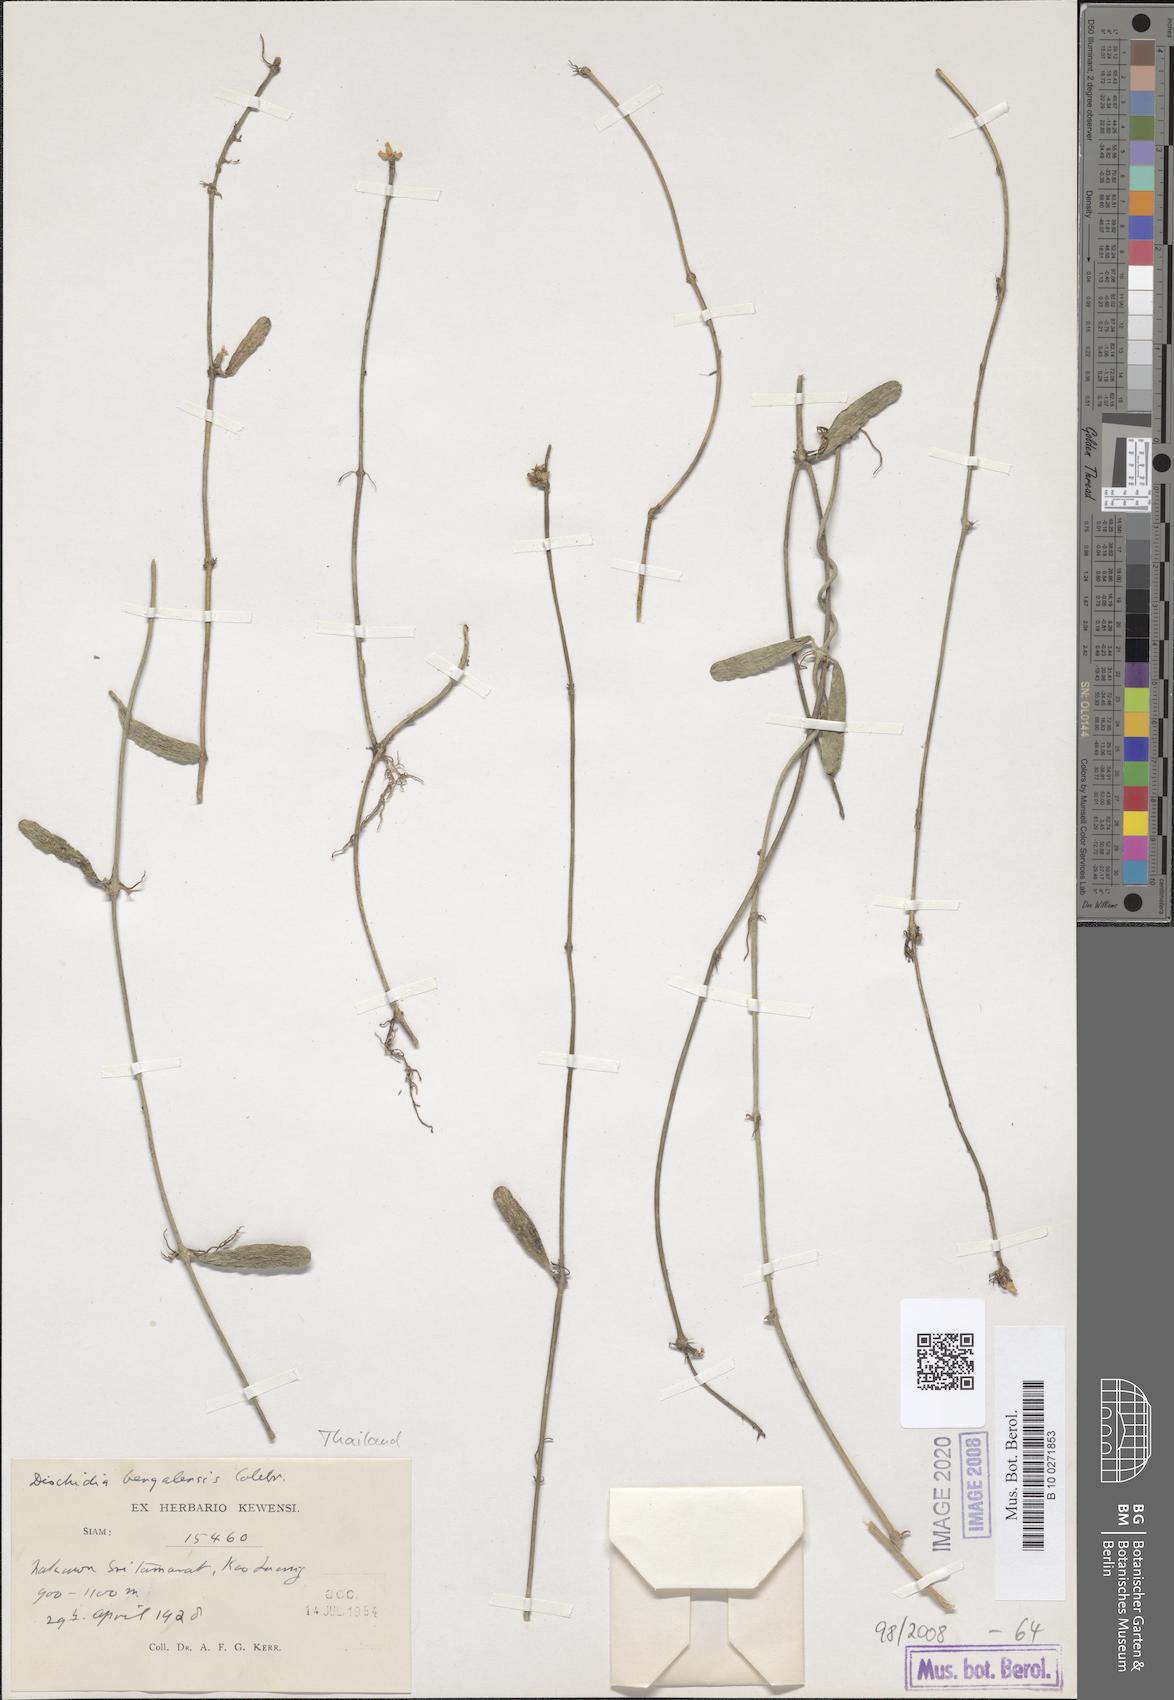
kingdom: Plantae
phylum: Tracheophyta
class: Magnoliopsida
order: Gentianales
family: Apocynaceae
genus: Dischidia
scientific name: Dischidia bengalensis
